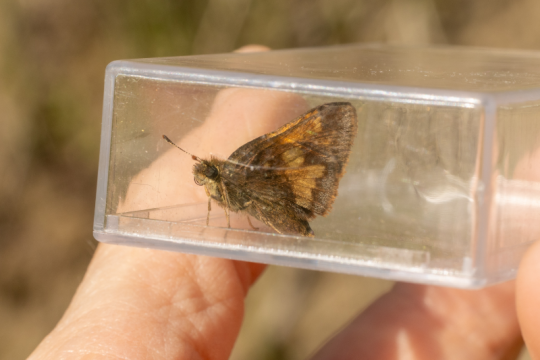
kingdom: Animalia
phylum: Arthropoda
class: Insecta
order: Lepidoptera
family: Hesperiidae
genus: Lon
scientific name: Lon hobomok
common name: Hobomok Skipper
